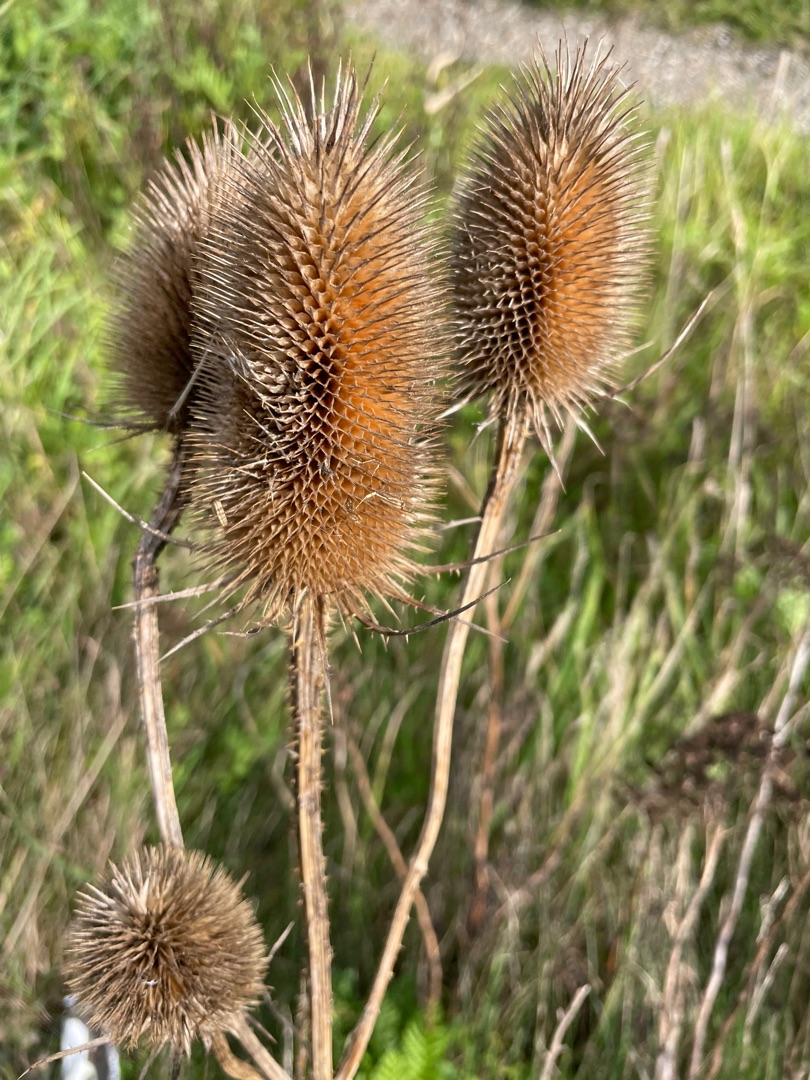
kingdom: Plantae
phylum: Tracheophyta
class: Magnoliopsida
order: Dipsacales
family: Caprifoliaceae
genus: Dipsacus
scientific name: Dipsacus fullonum
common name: Gærde-kartebolle
